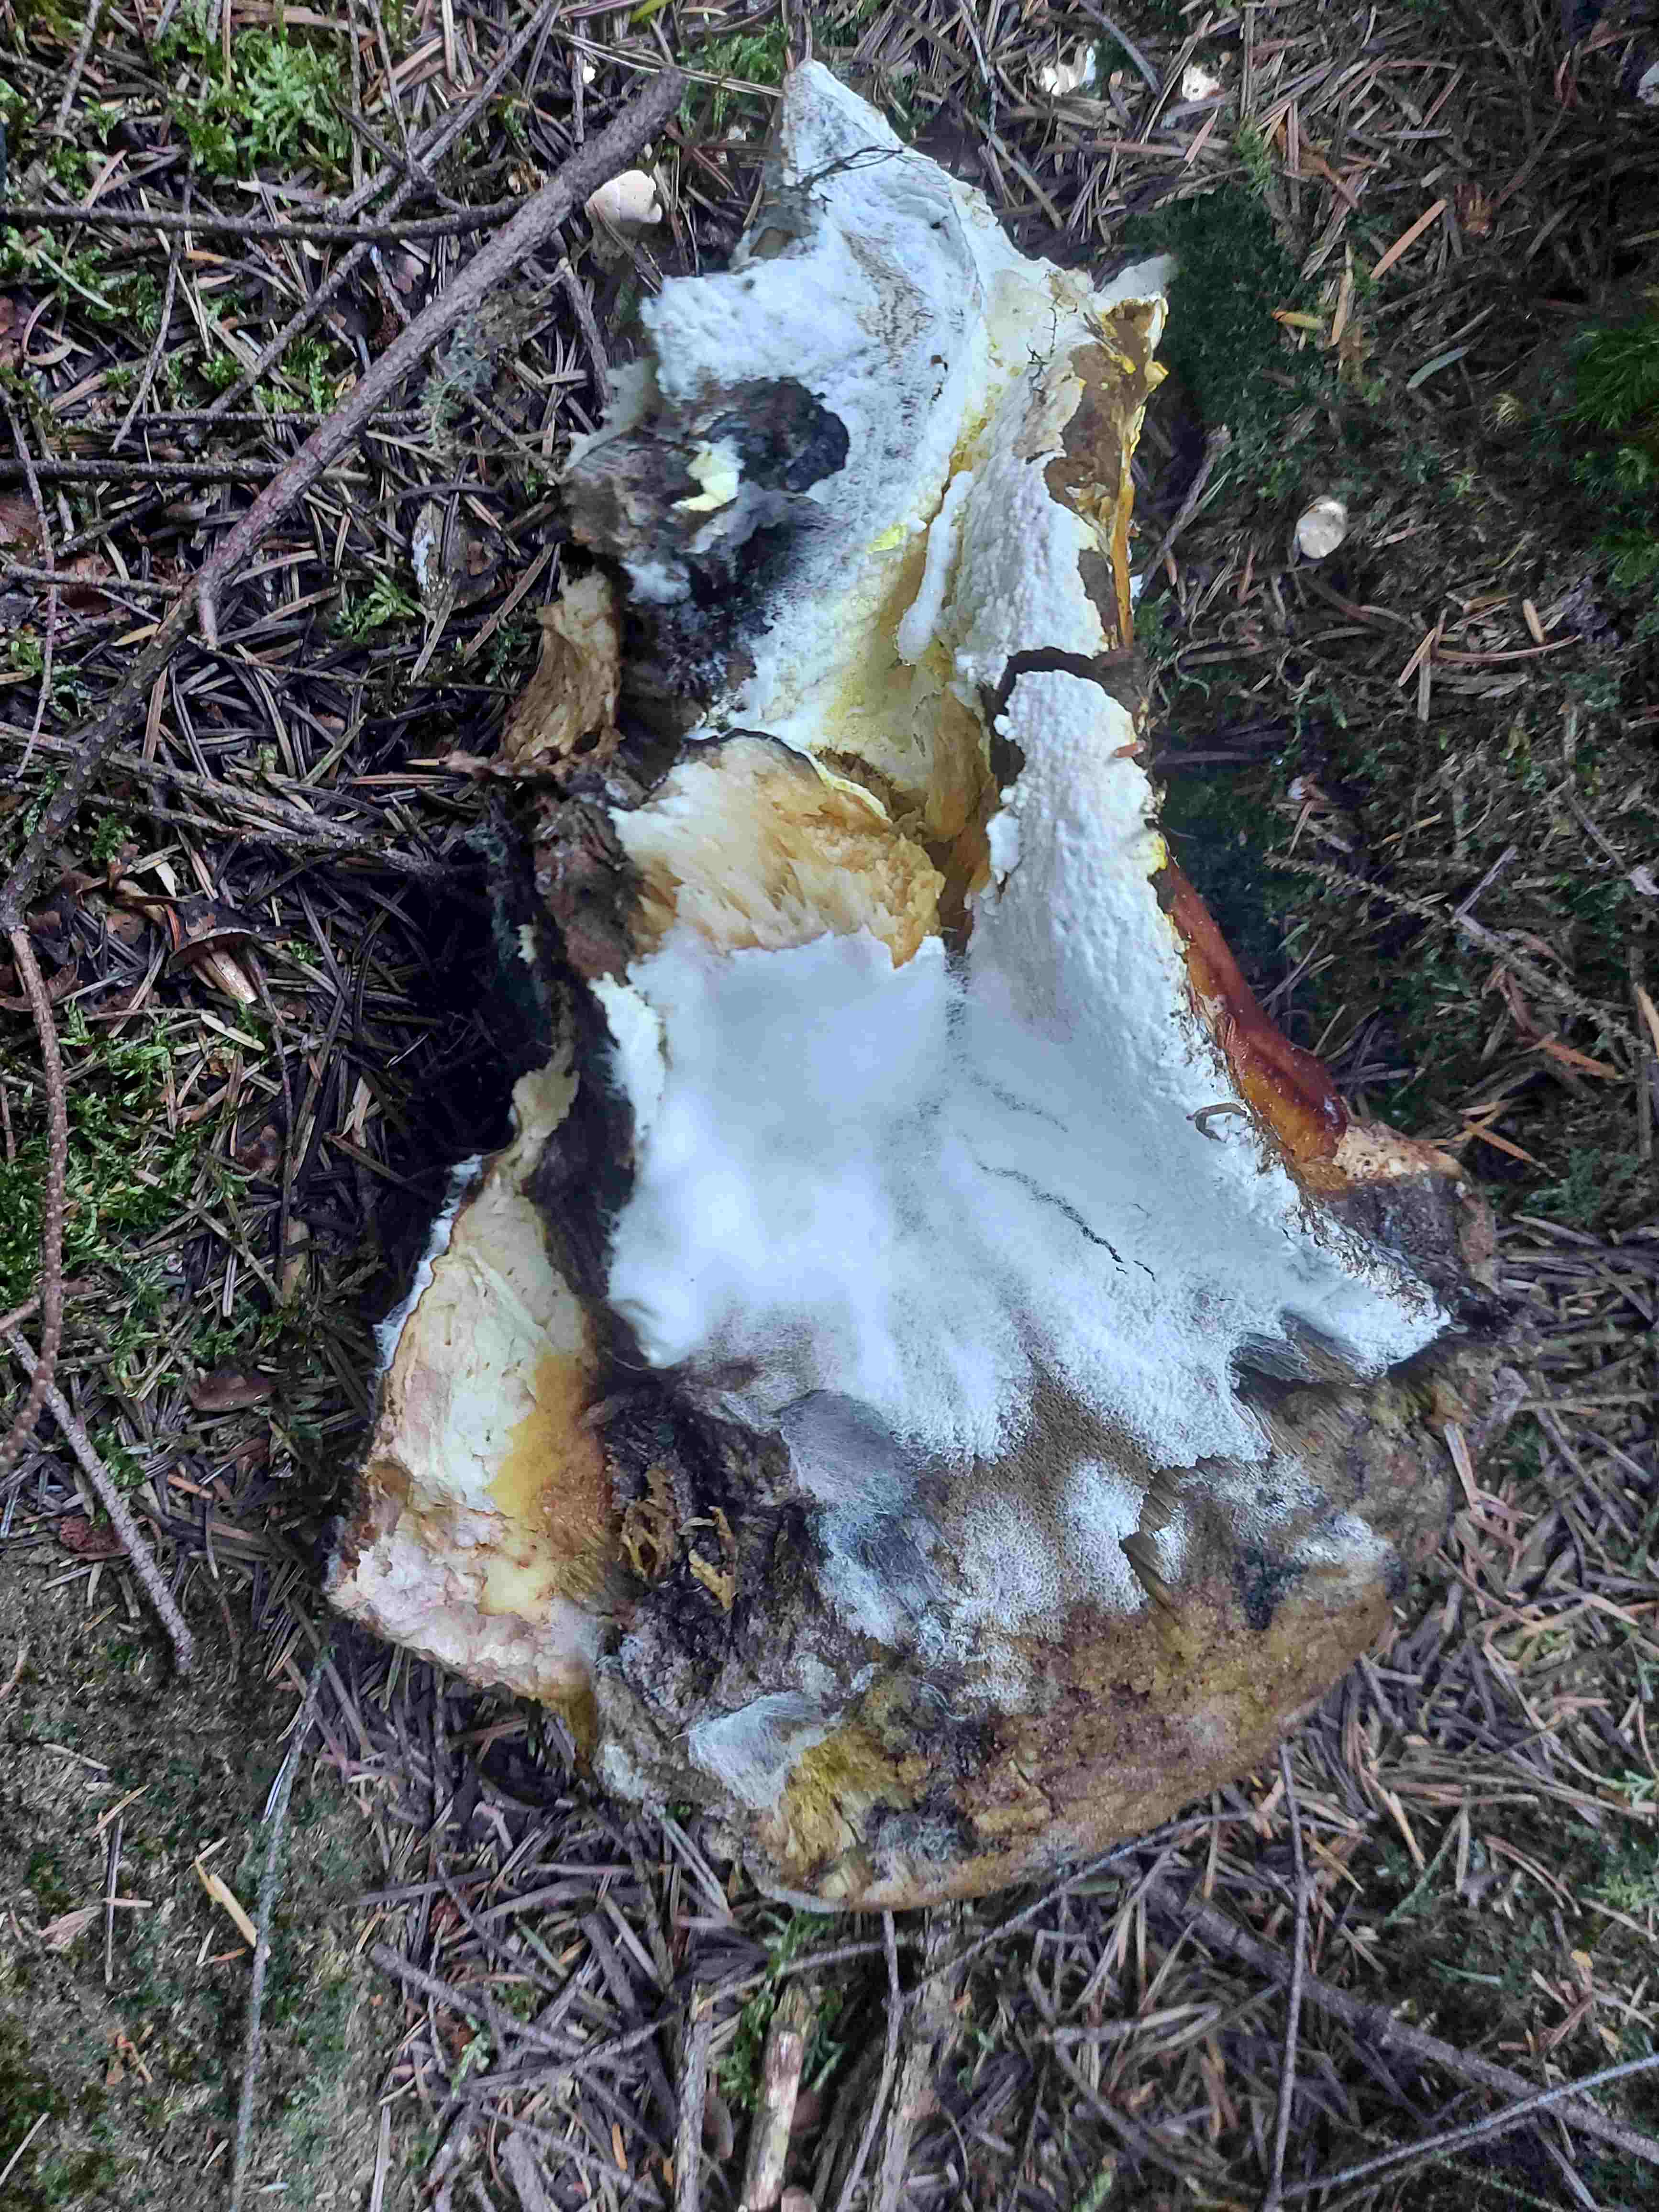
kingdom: Fungi
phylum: Ascomycota
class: Sordariomycetes
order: Hypocreales
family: Hypocreaceae
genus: Hypomyces
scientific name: Hypomyces chrysospermus
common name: gulskimmel-snylteskorpe
